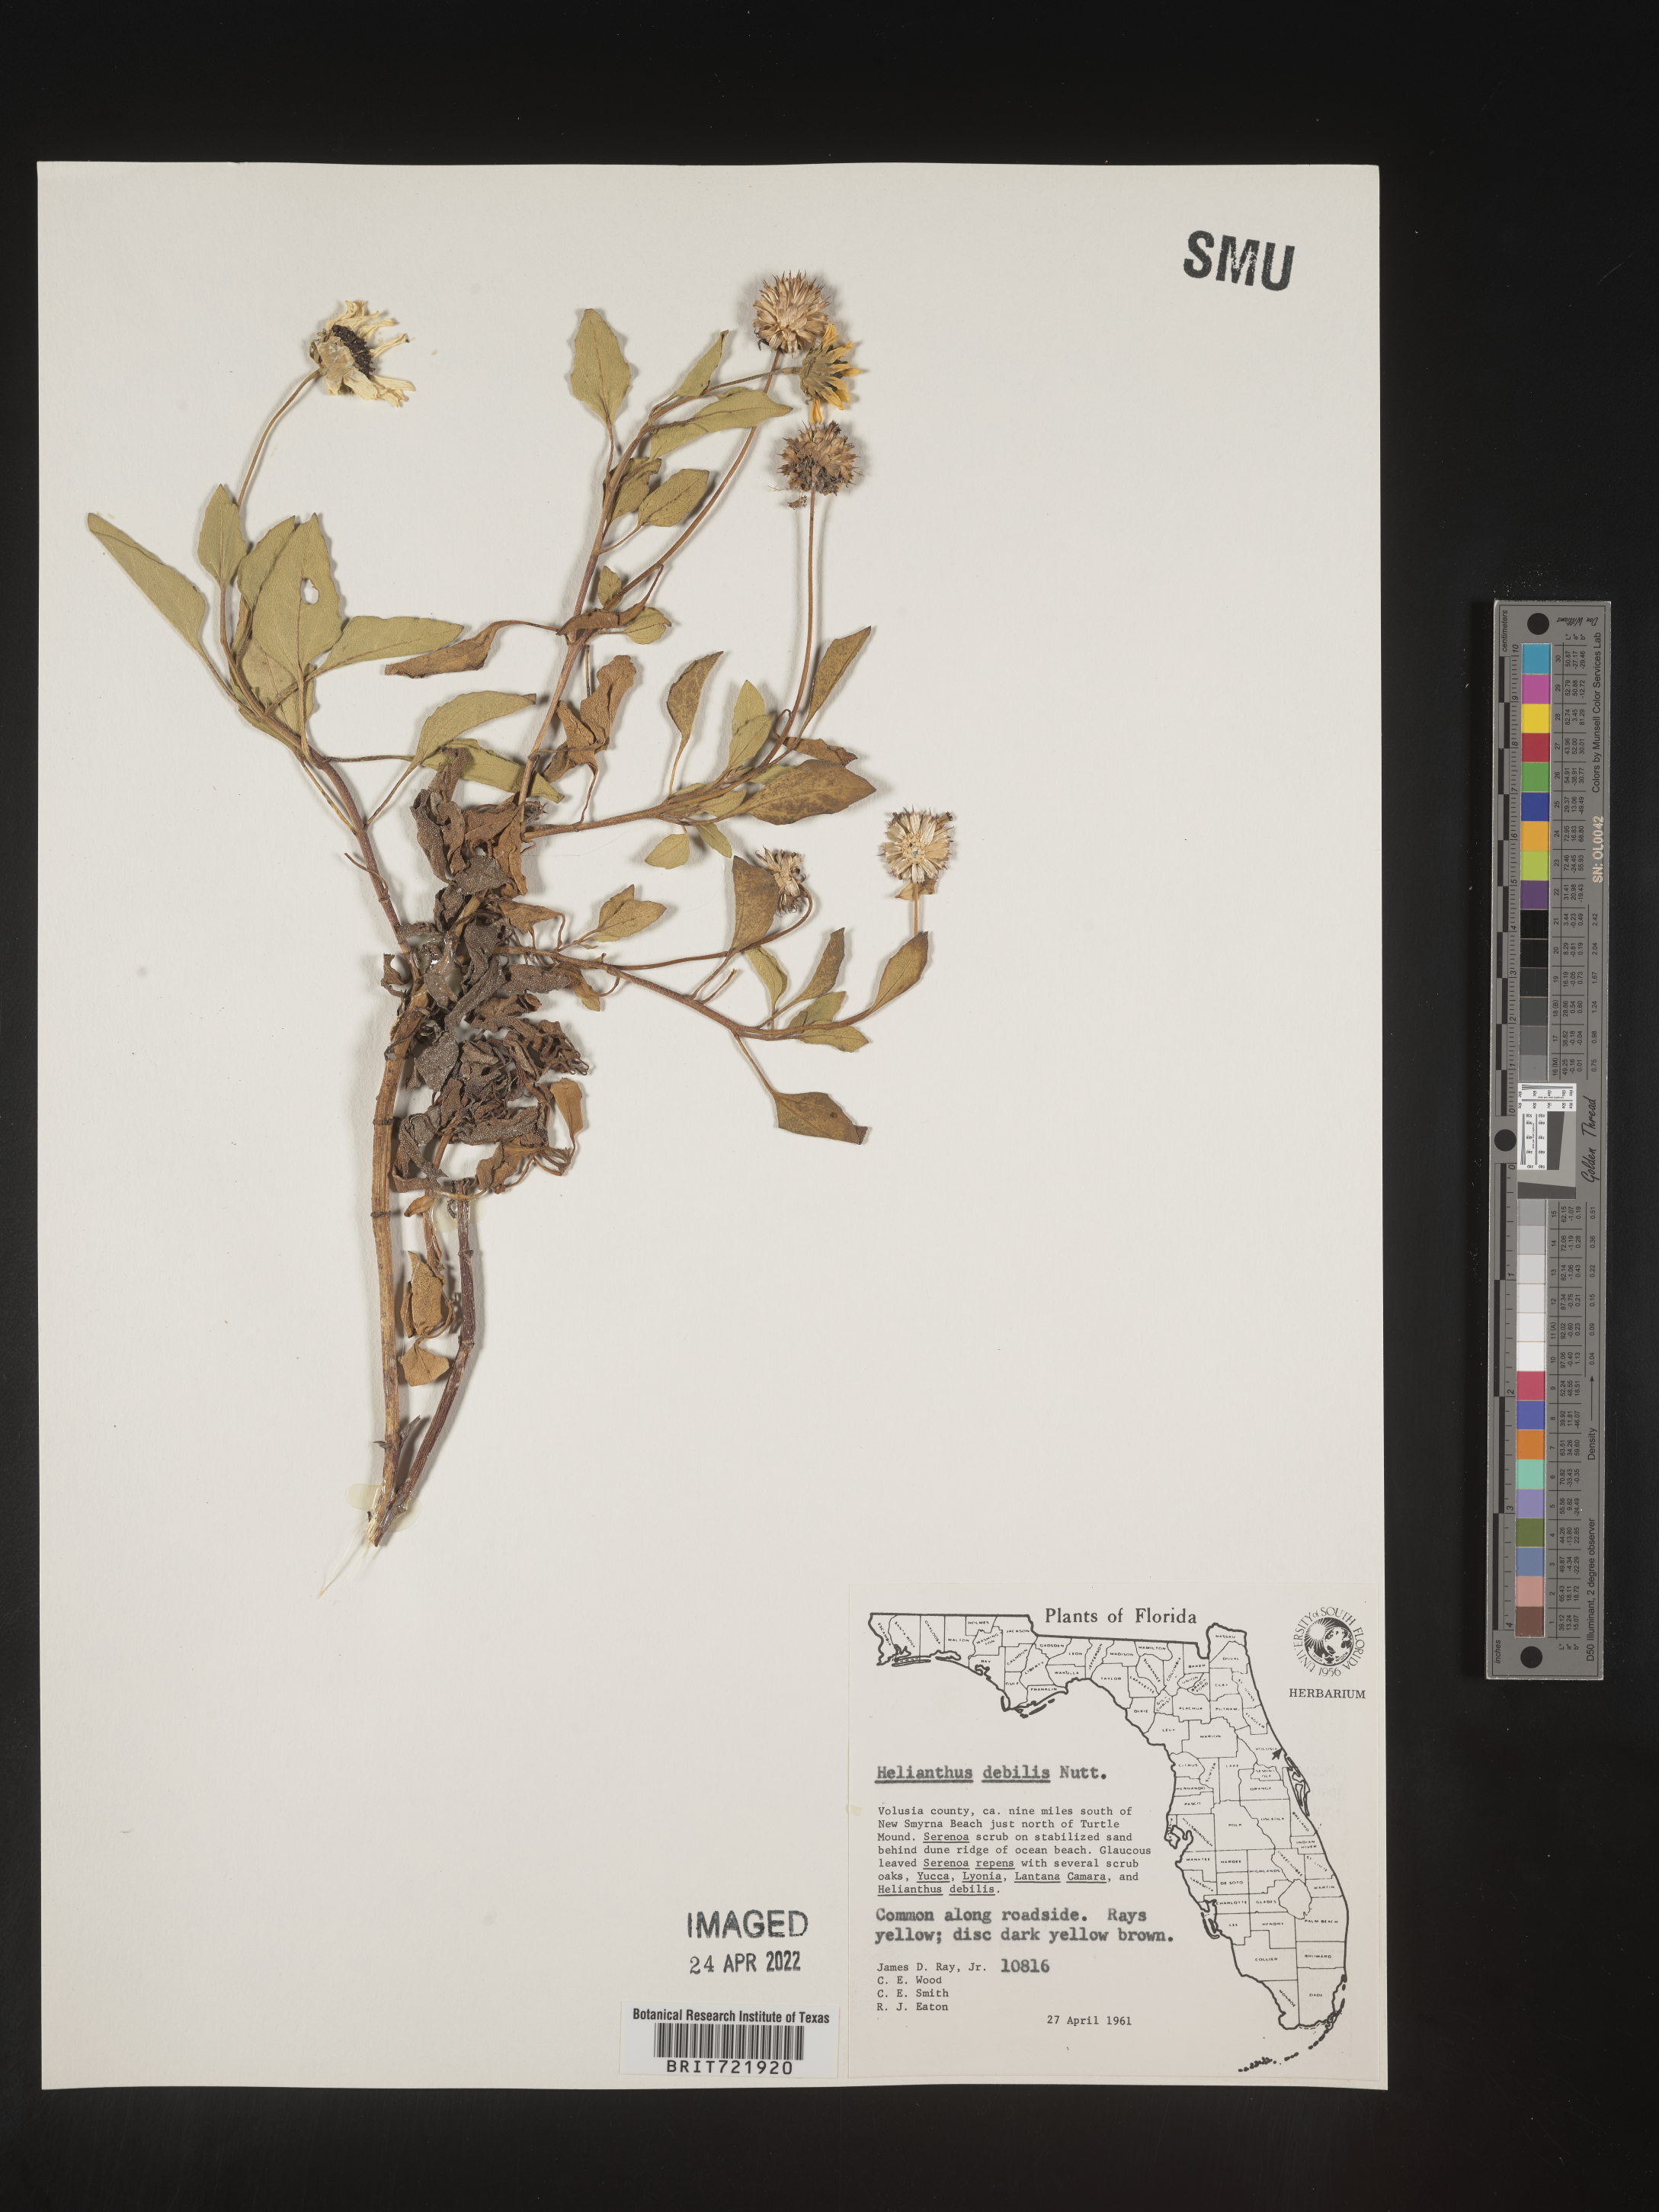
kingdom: Plantae
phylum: Tracheophyta
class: Magnoliopsida
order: Asterales
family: Asteraceae
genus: Helianthus
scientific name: Helianthus debilis
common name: Weak sunflower
